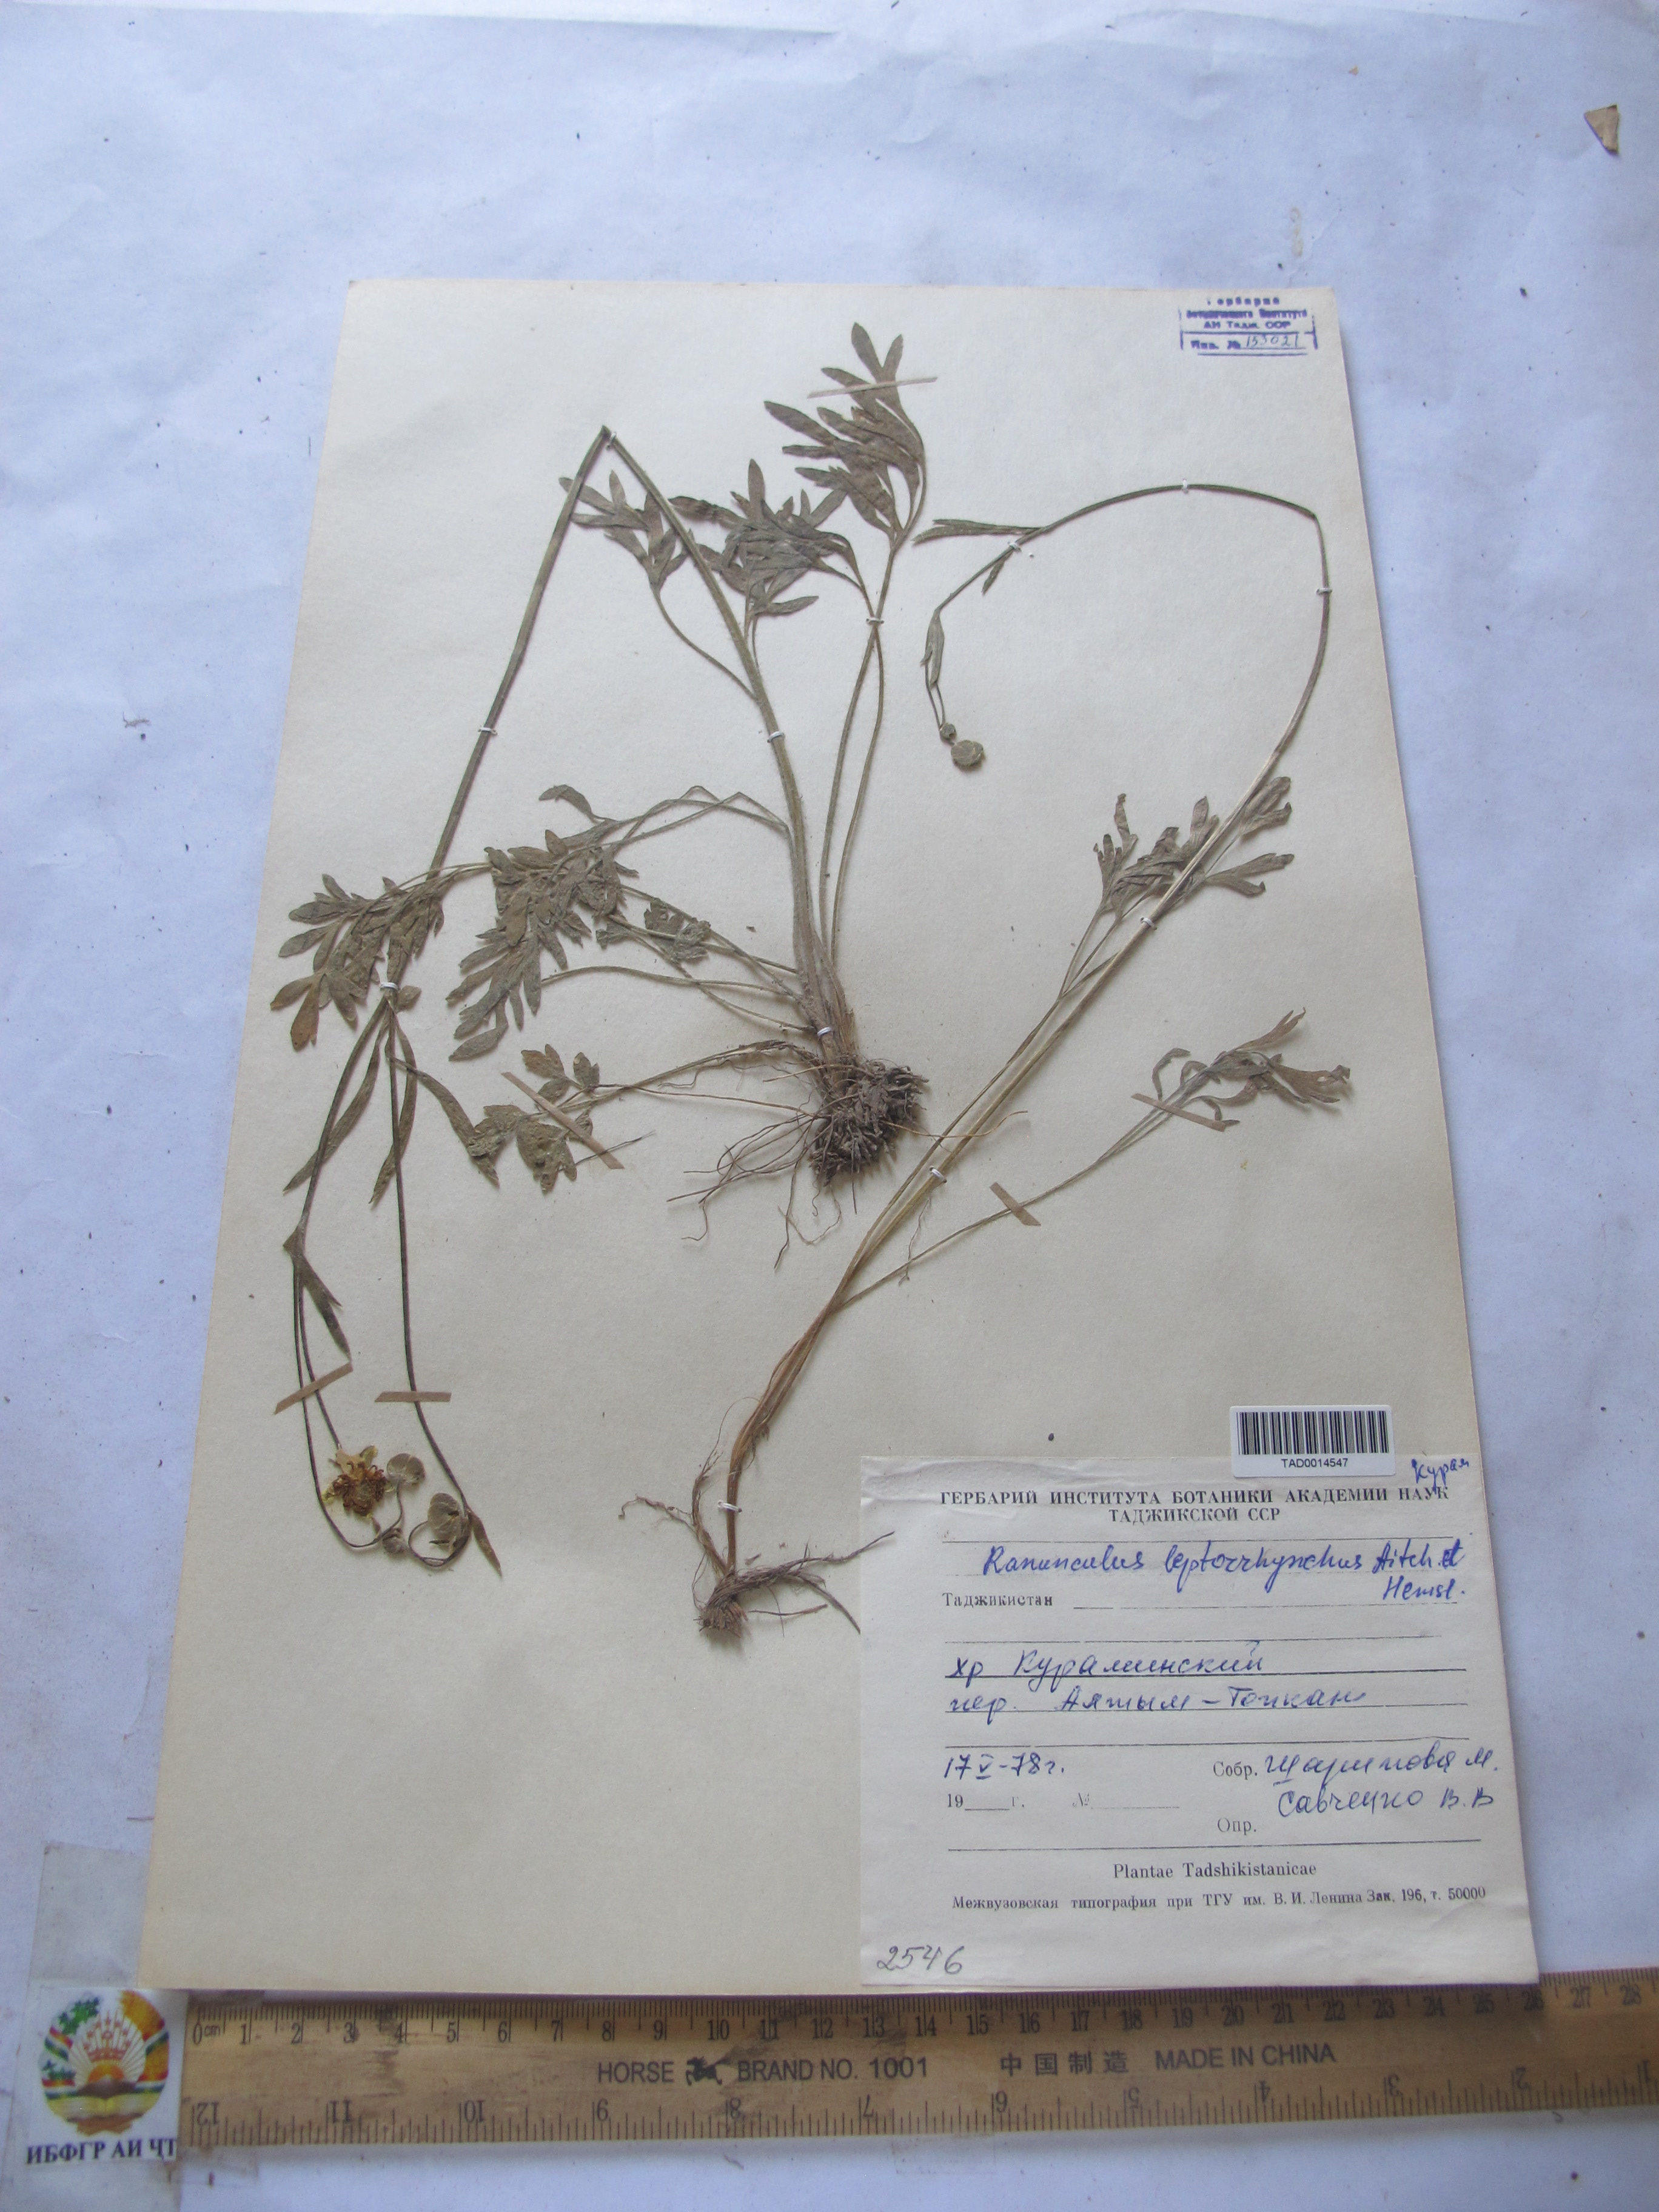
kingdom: Plantae
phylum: Tracheophyta
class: Magnoliopsida
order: Ranunculales
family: Ranunculaceae
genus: Ranunculus
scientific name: Ranunculus leptorrhynchus
